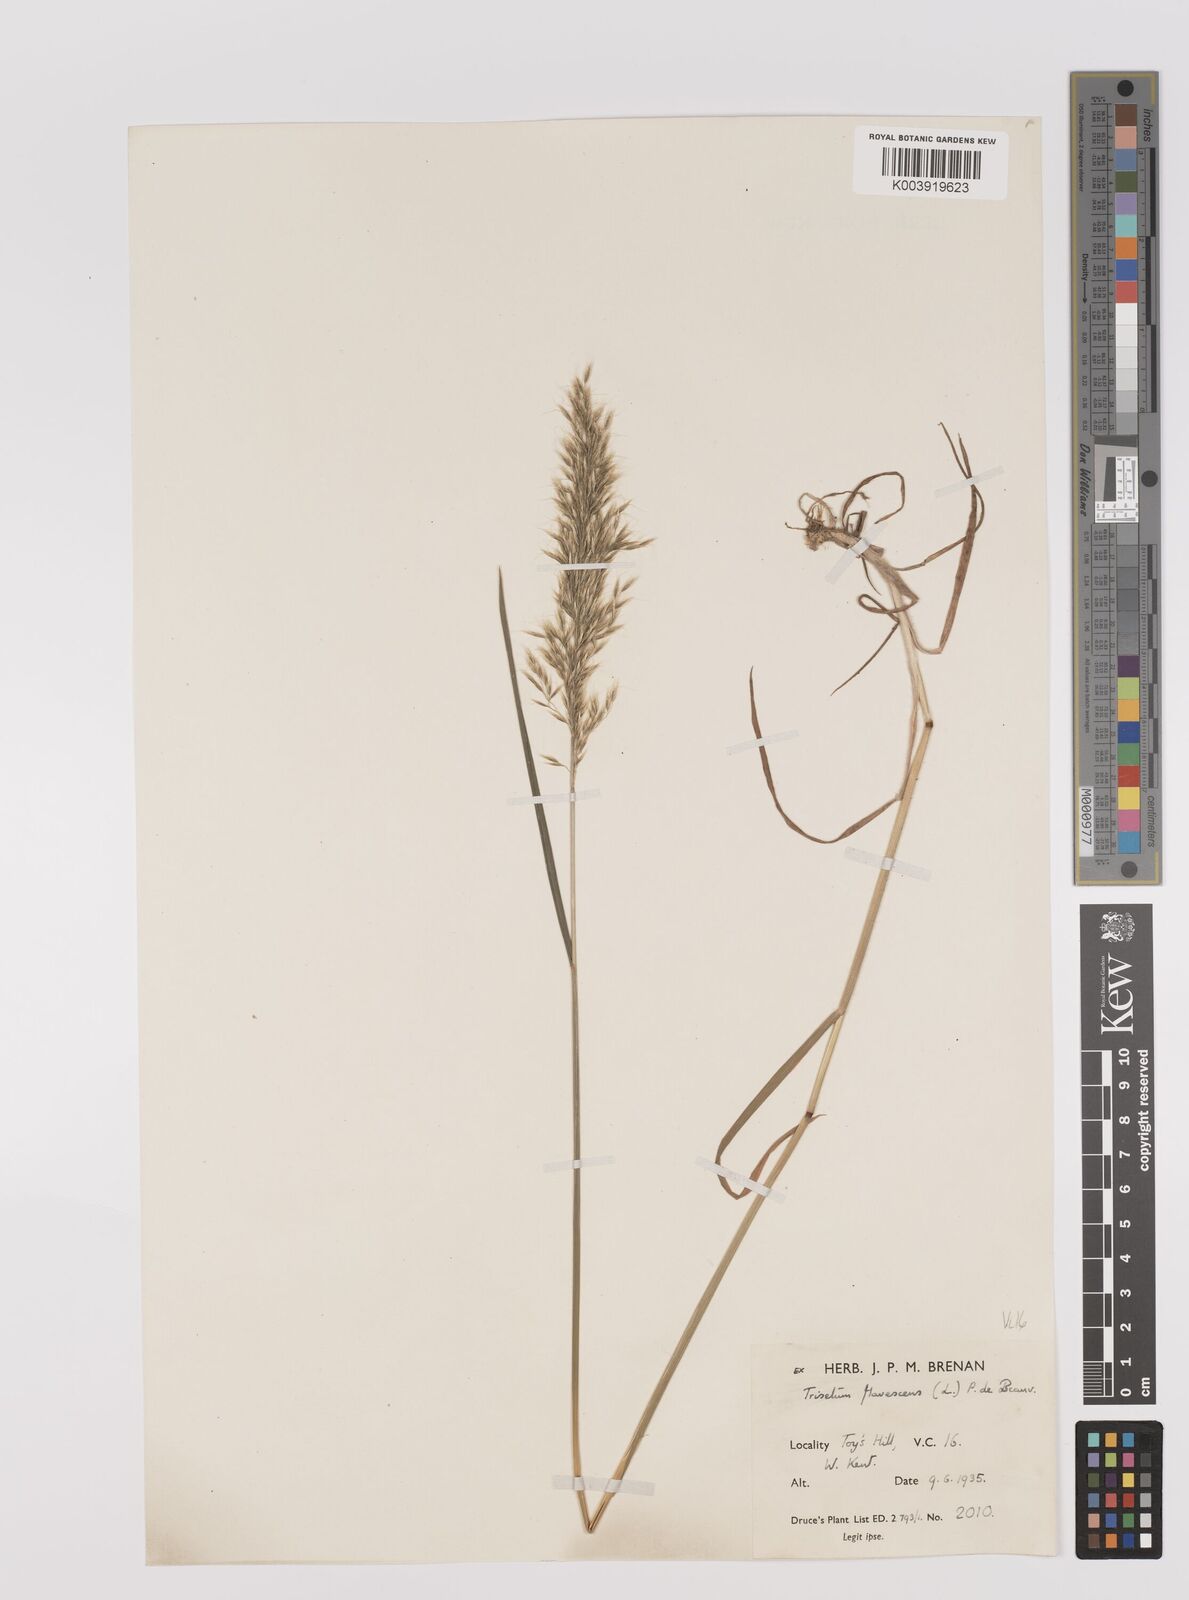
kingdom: Plantae
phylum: Tracheophyta
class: Liliopsida
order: Poales
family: Poaceae
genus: Trisetum
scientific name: Trisetum flavescens
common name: Yellow oat-grass
